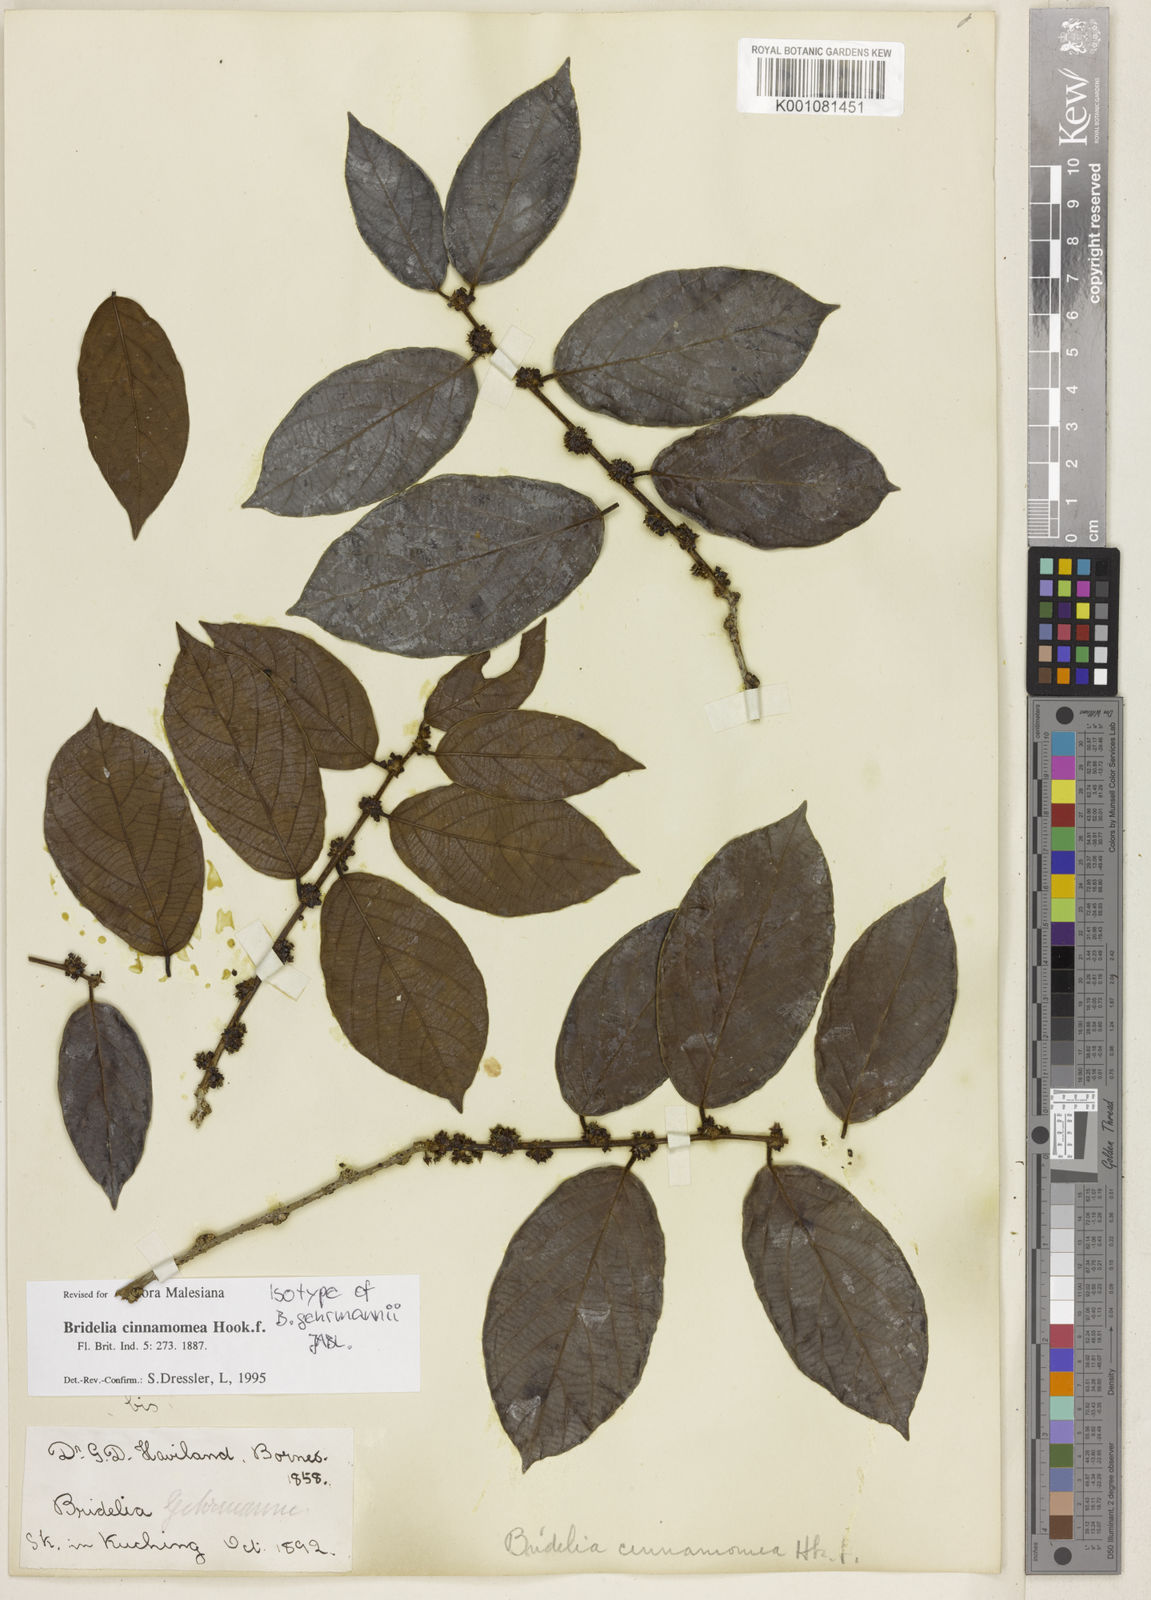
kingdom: Plantae
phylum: Tracheophyta
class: Magnoliopsida
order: Malpighiales
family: Phyllanthaceae
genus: Bridelia
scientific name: Bridelia cinnamomea
